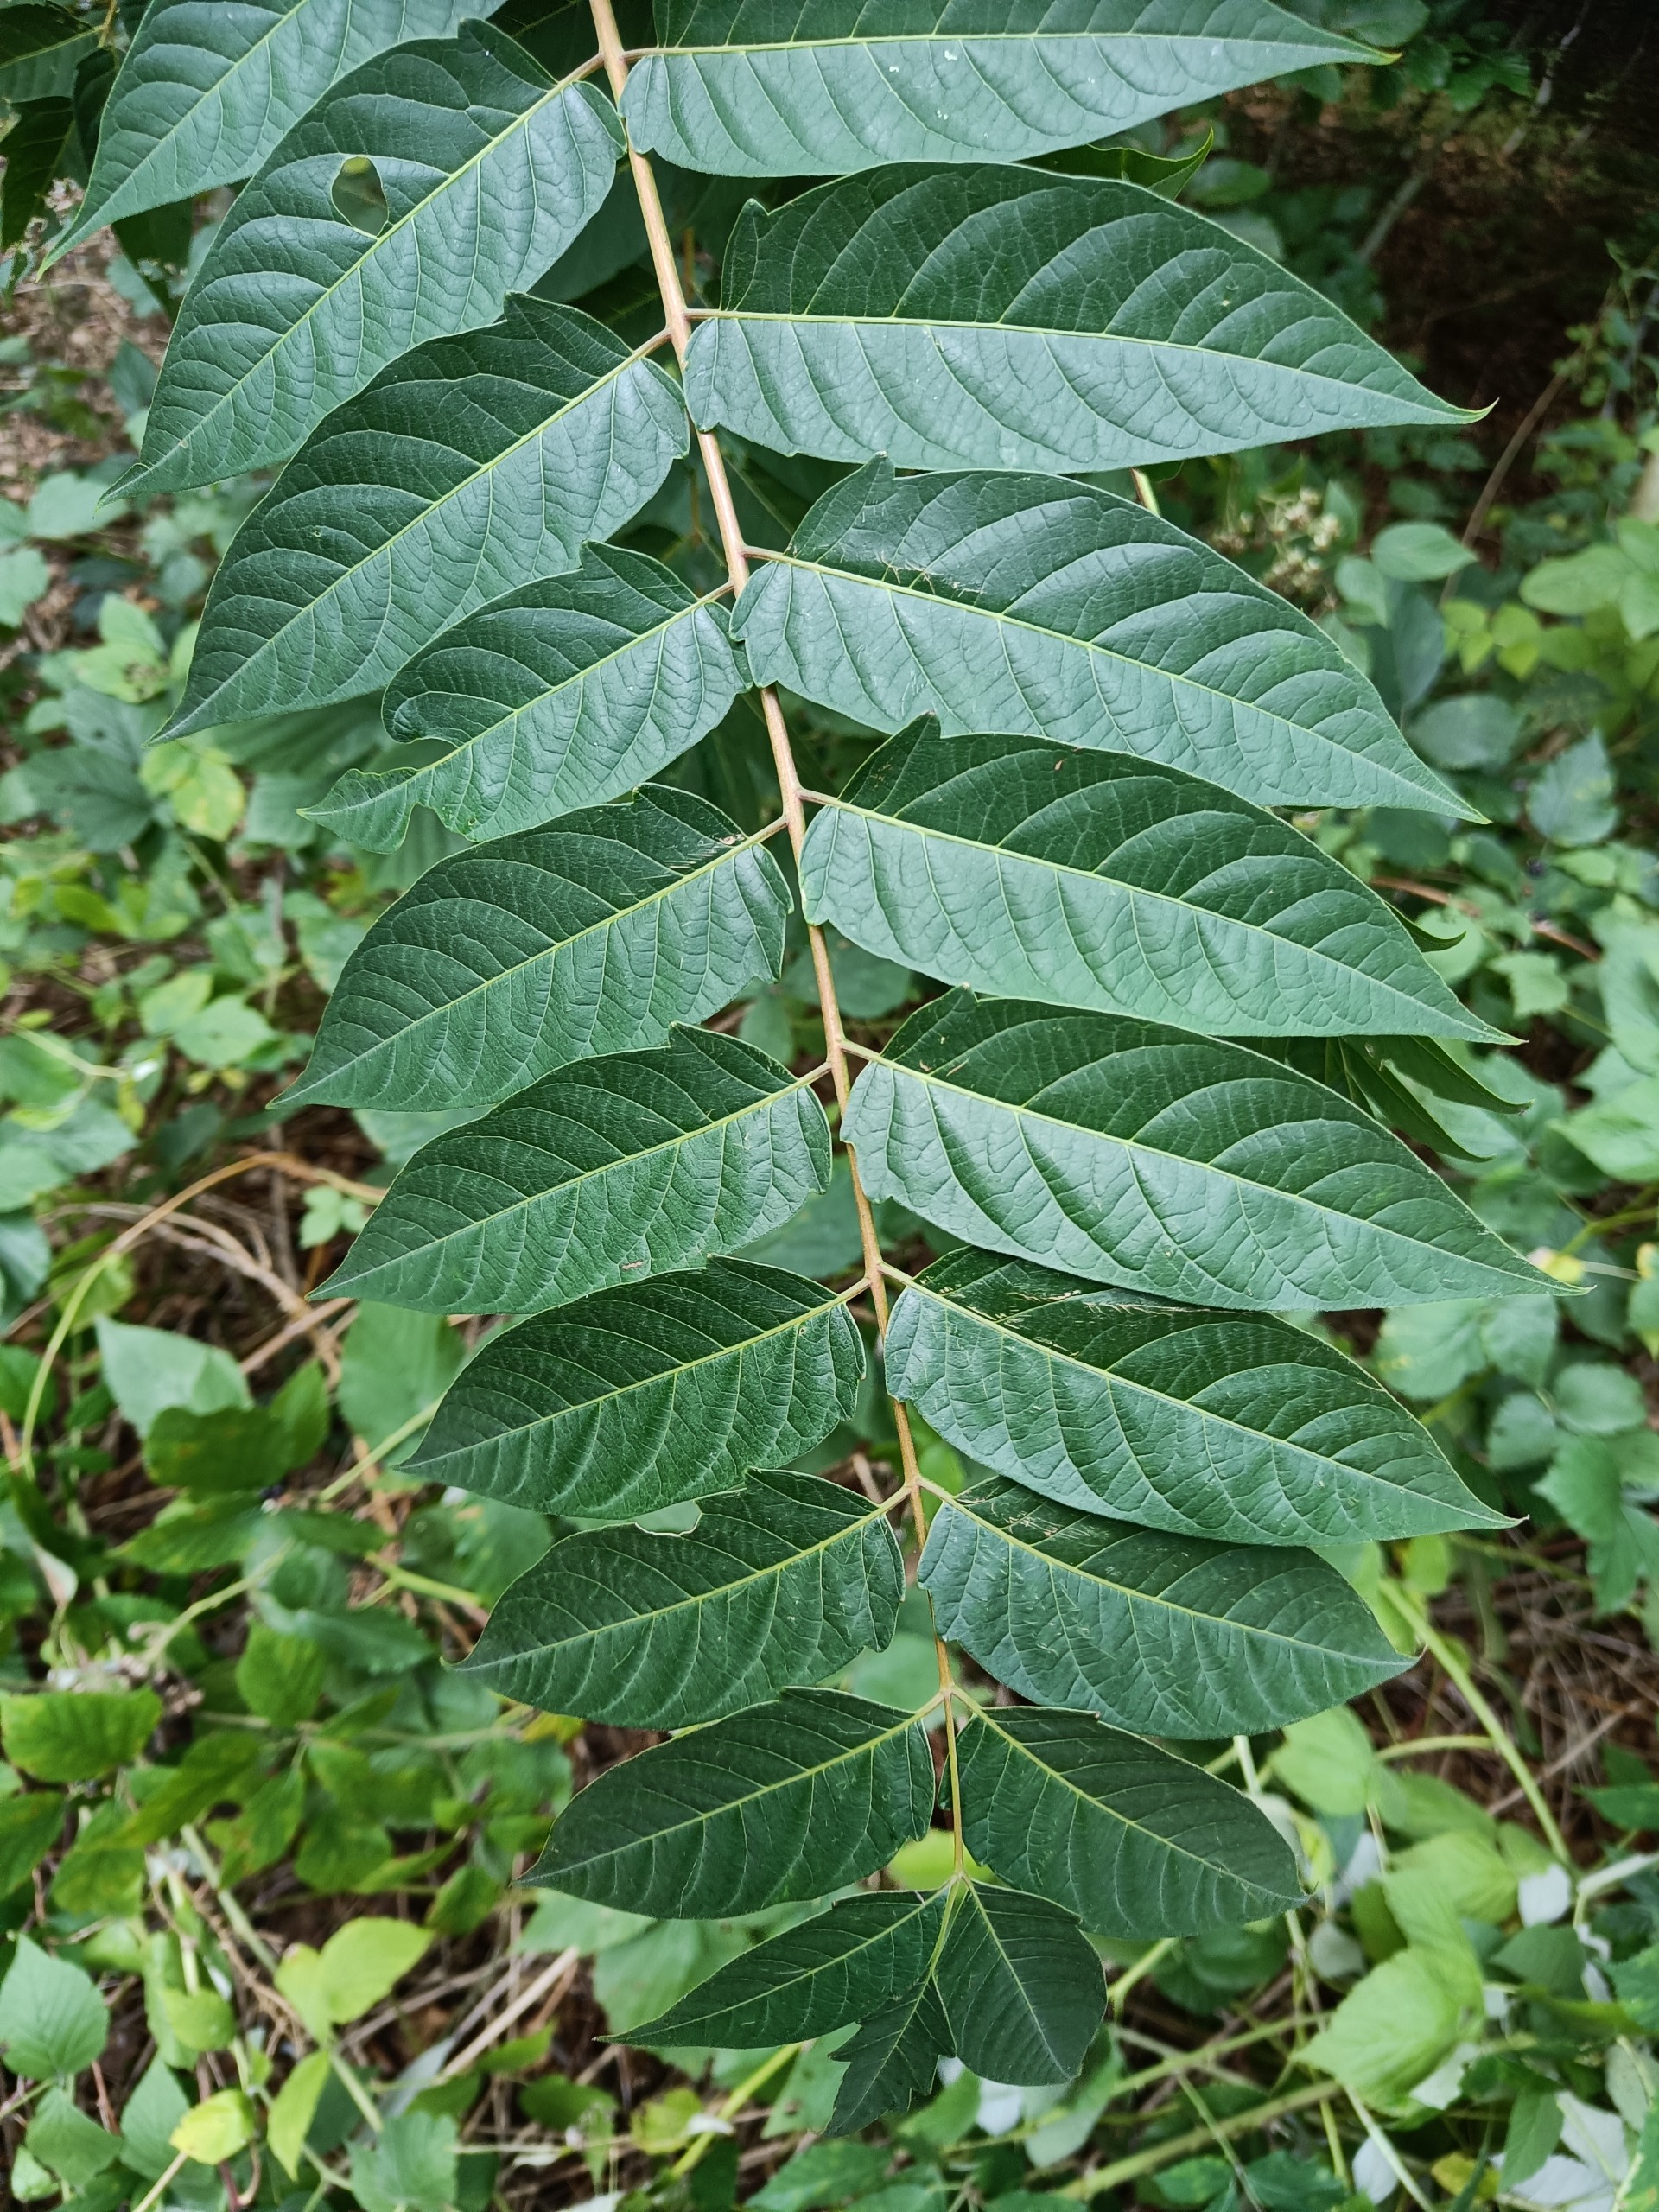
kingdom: Plantae
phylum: Tracheophyta
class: Magnoliopsida
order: Sapindales
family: Simaroubaceae
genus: Ailanthus
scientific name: Ailanthus altissima
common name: Skyrækker
